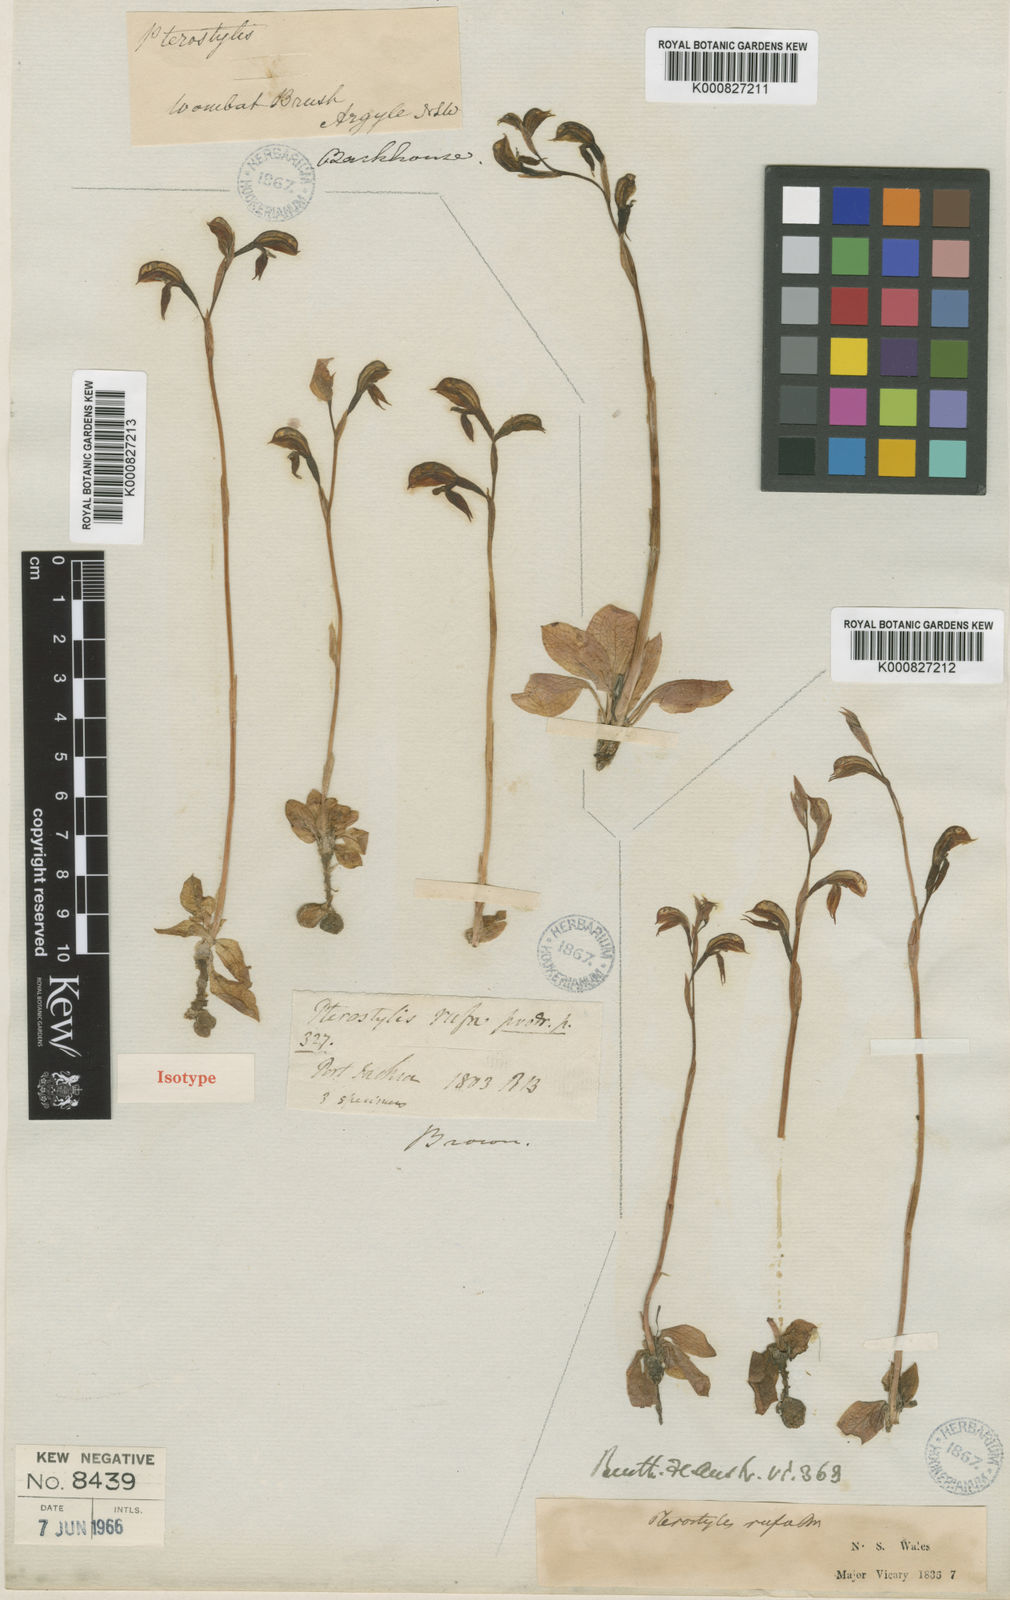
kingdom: Plantae
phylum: Tracheophyta
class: Liliopsida
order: Asparagales
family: Orchidaceae
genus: Pterostylis
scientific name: Pterostylis rufa
